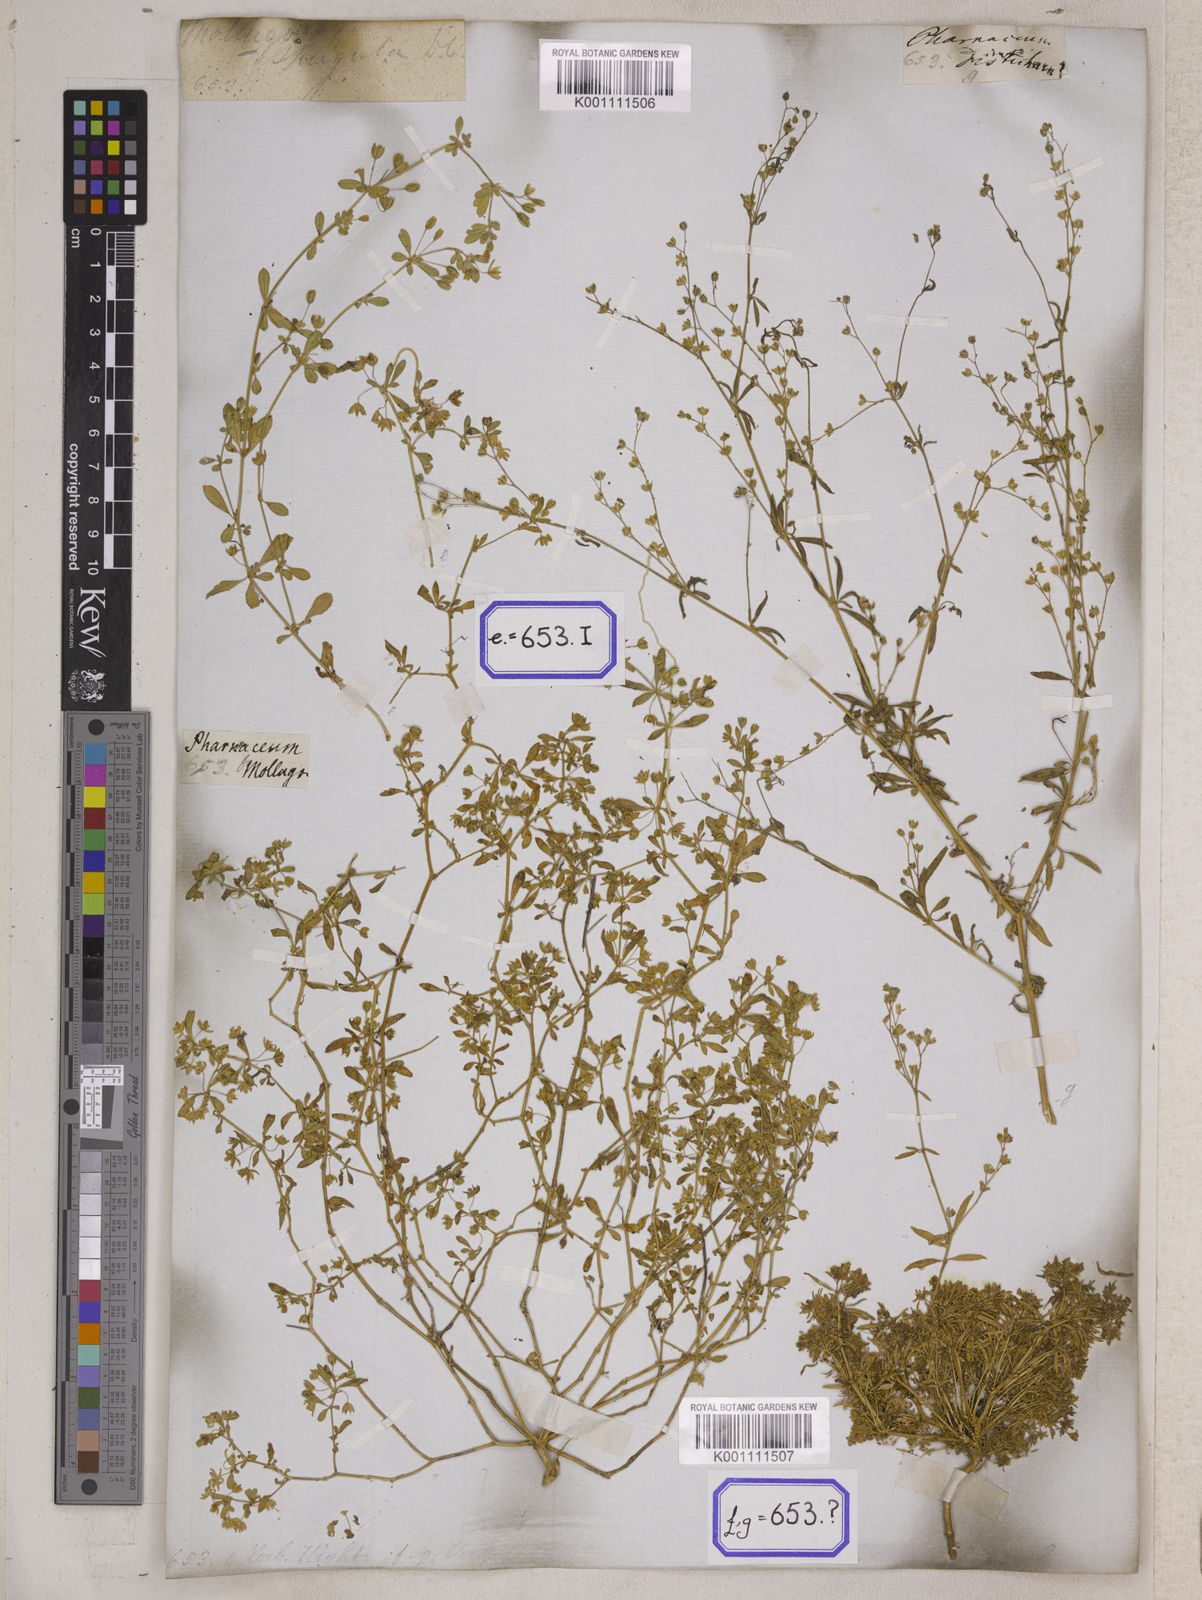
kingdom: Plantae
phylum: Tracheophyta
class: Magnoliopsida
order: Caryophyllales
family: Molluginaceae
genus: Glinus
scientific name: Glinus oppositifolius
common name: Slender carpetweed
